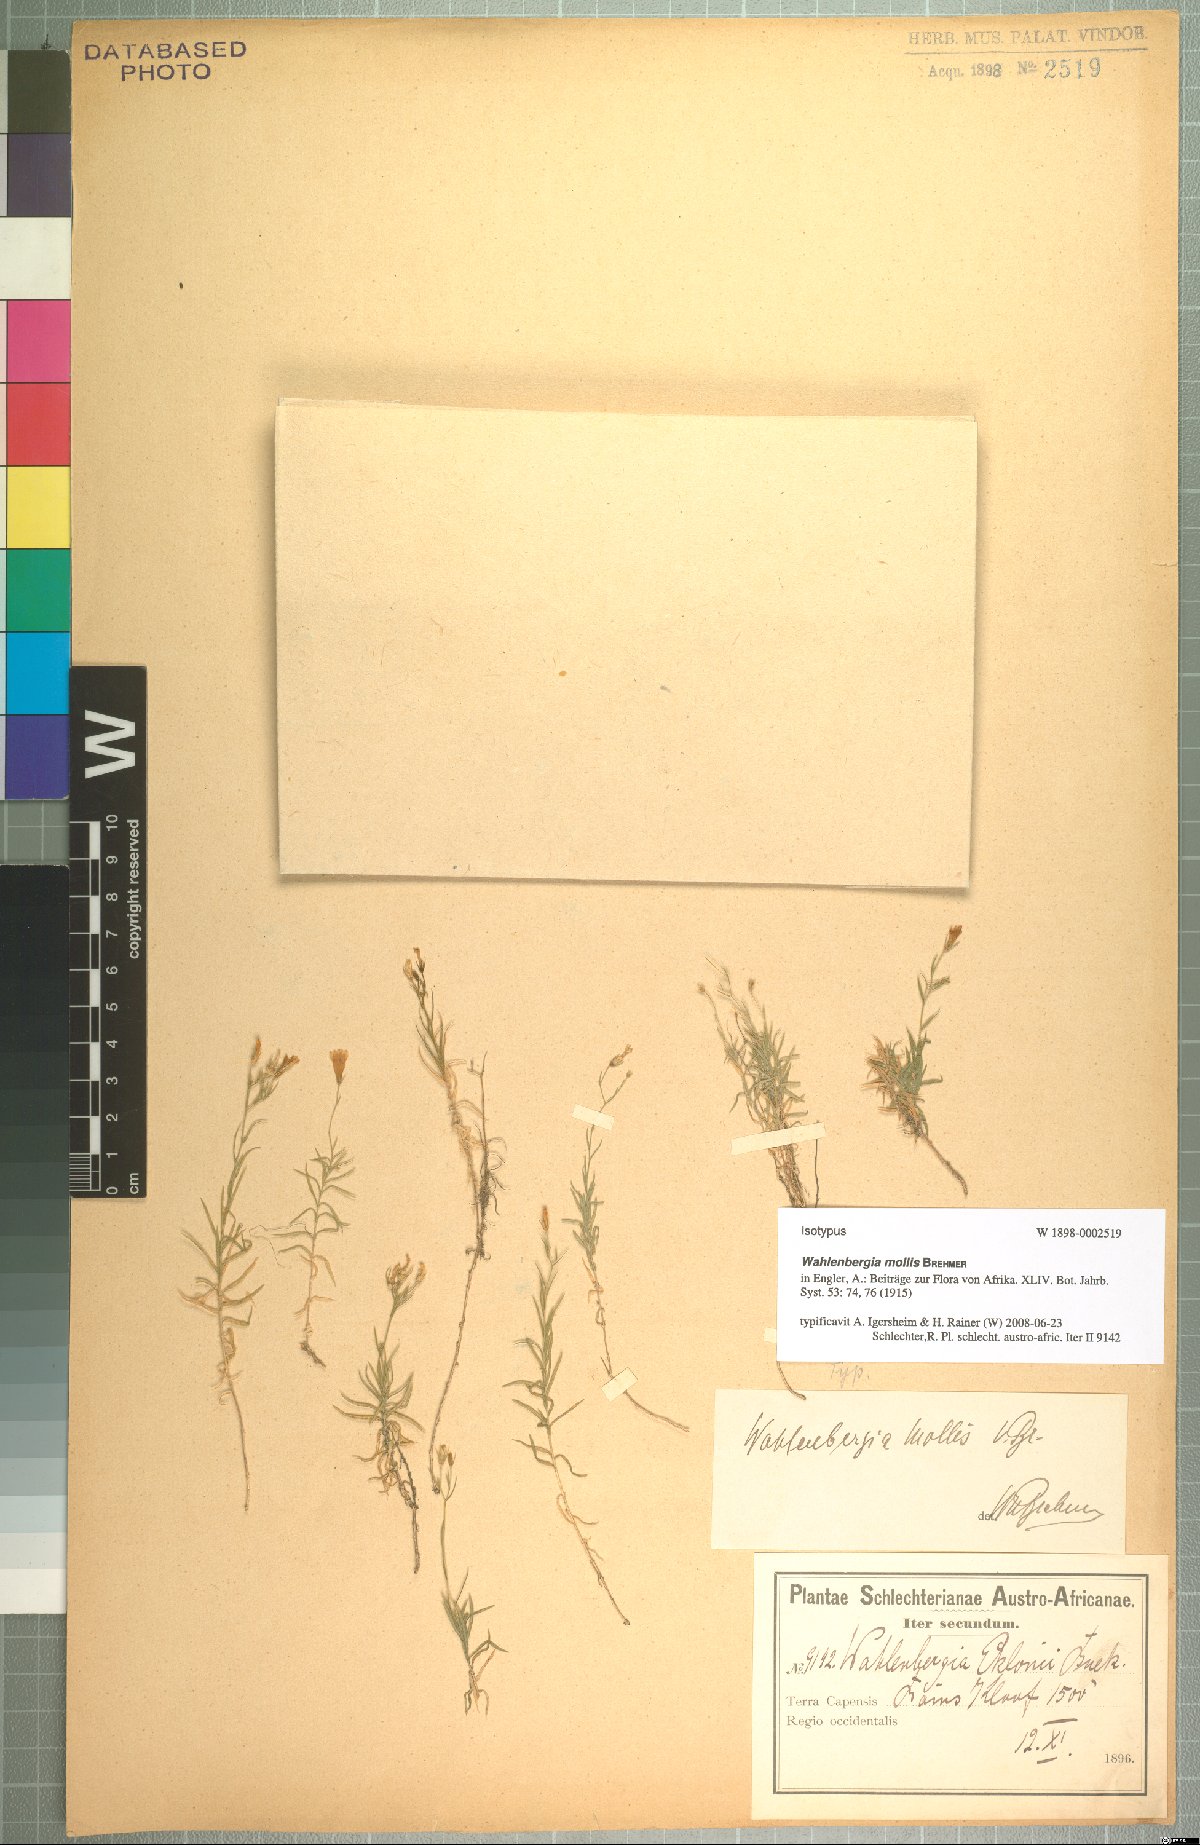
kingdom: Plantae
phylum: Tracheophyta
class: Magnoliopsida
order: Asterales
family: Campanulaceae
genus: Wahlenbergia
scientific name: Wahlenbergia mollis
